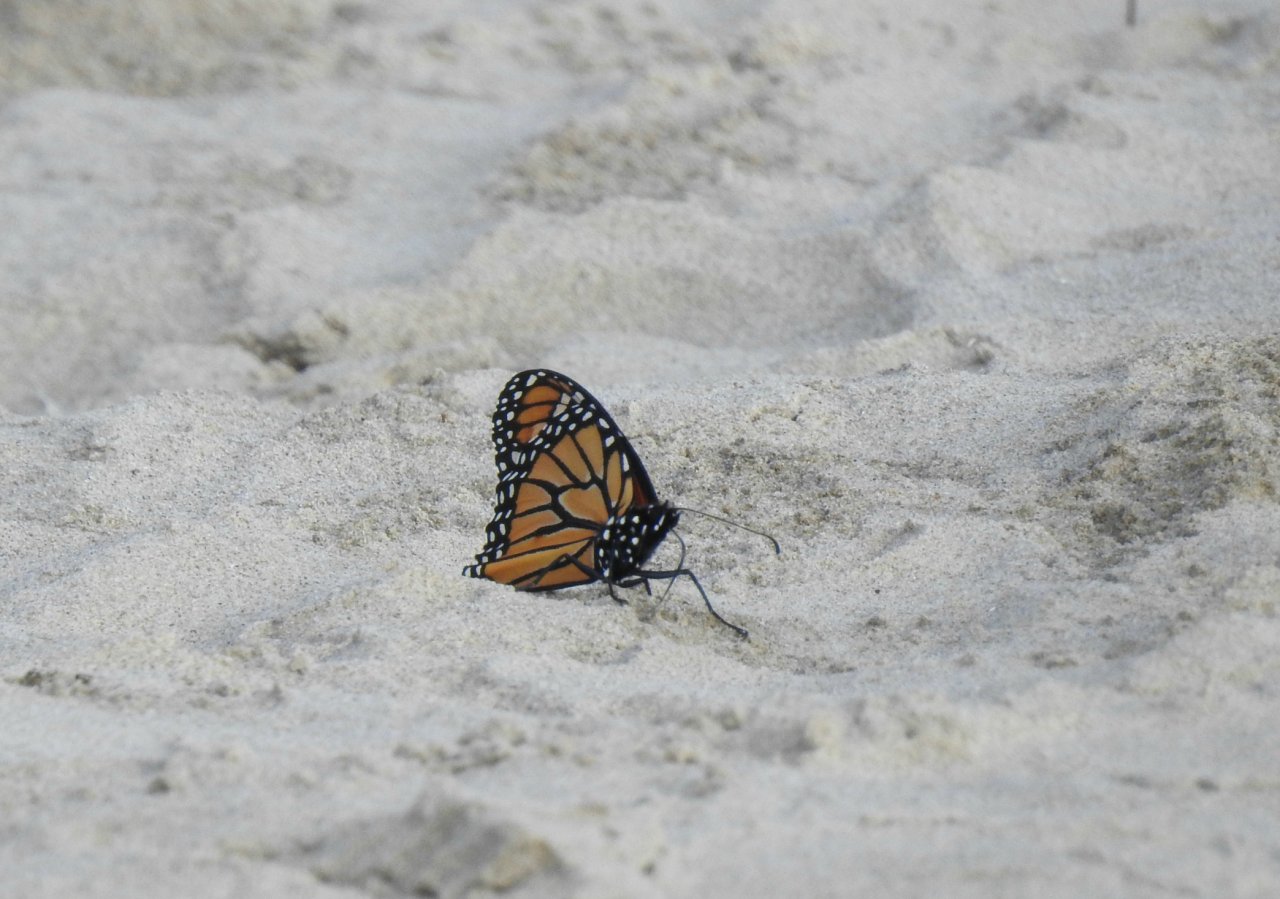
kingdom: Animalia
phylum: Arthropoda
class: Insecta
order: Lepidoptera
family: Nymphalidae
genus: Danaus
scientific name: Danaus plexippus
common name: Monarch
